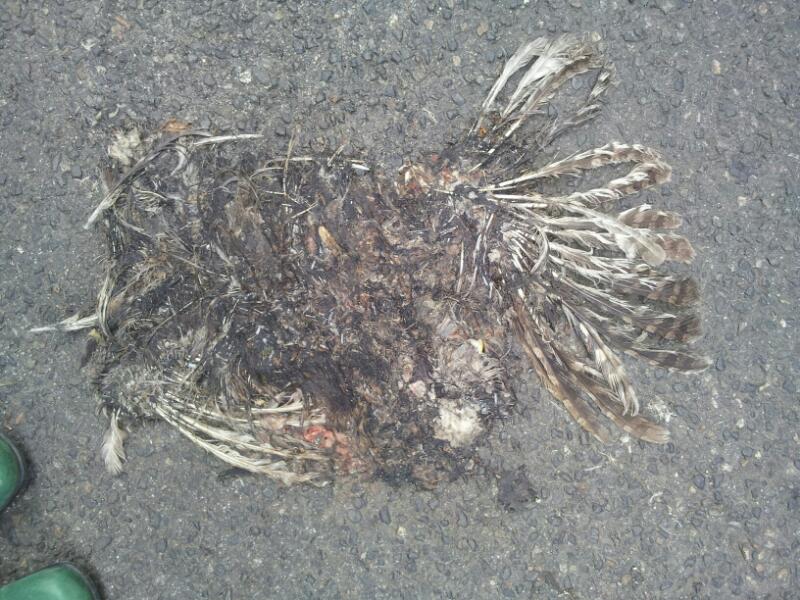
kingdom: Animalia
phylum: Chordata
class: Aves
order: Strigiformes
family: Strigidae
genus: Strix
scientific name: Strix aluco
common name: Tawny owl
